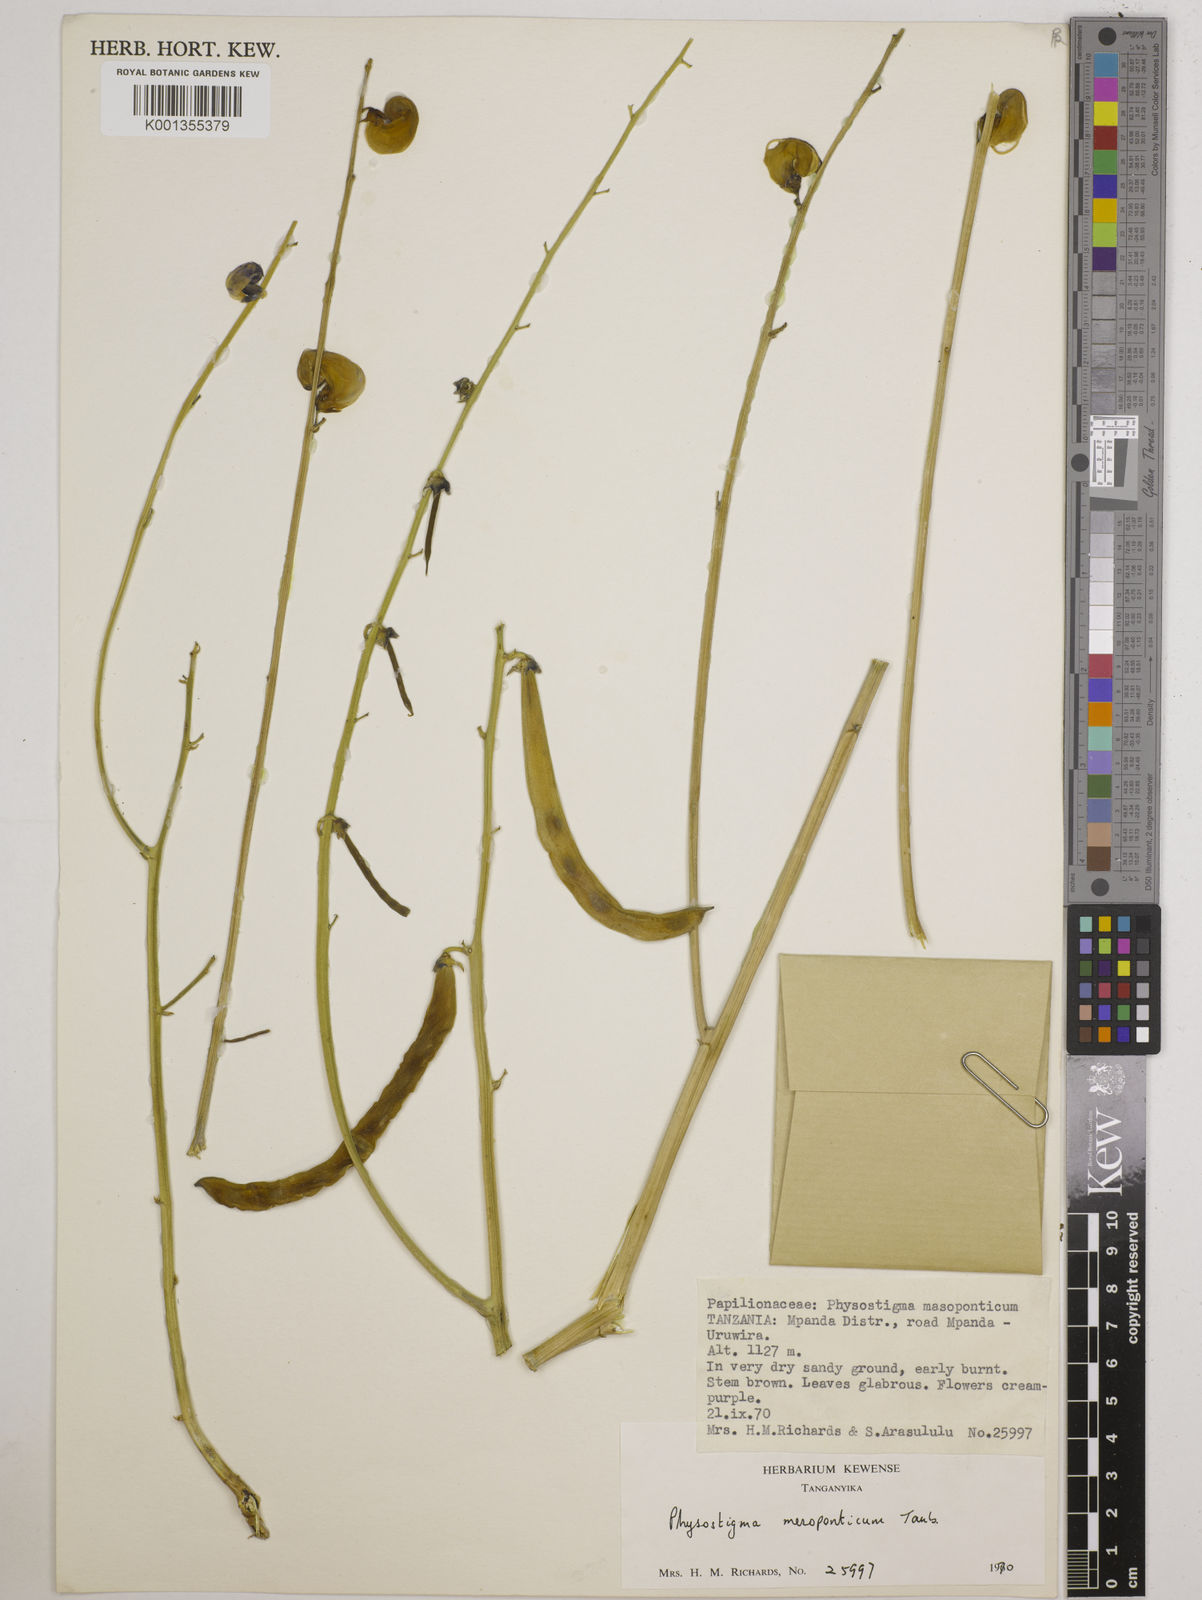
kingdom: Plantae
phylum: Tracheophyta
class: Magnoliopsida
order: Fabales
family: Fabaceae
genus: Physostigma
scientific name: Physostigma mesoponticum
